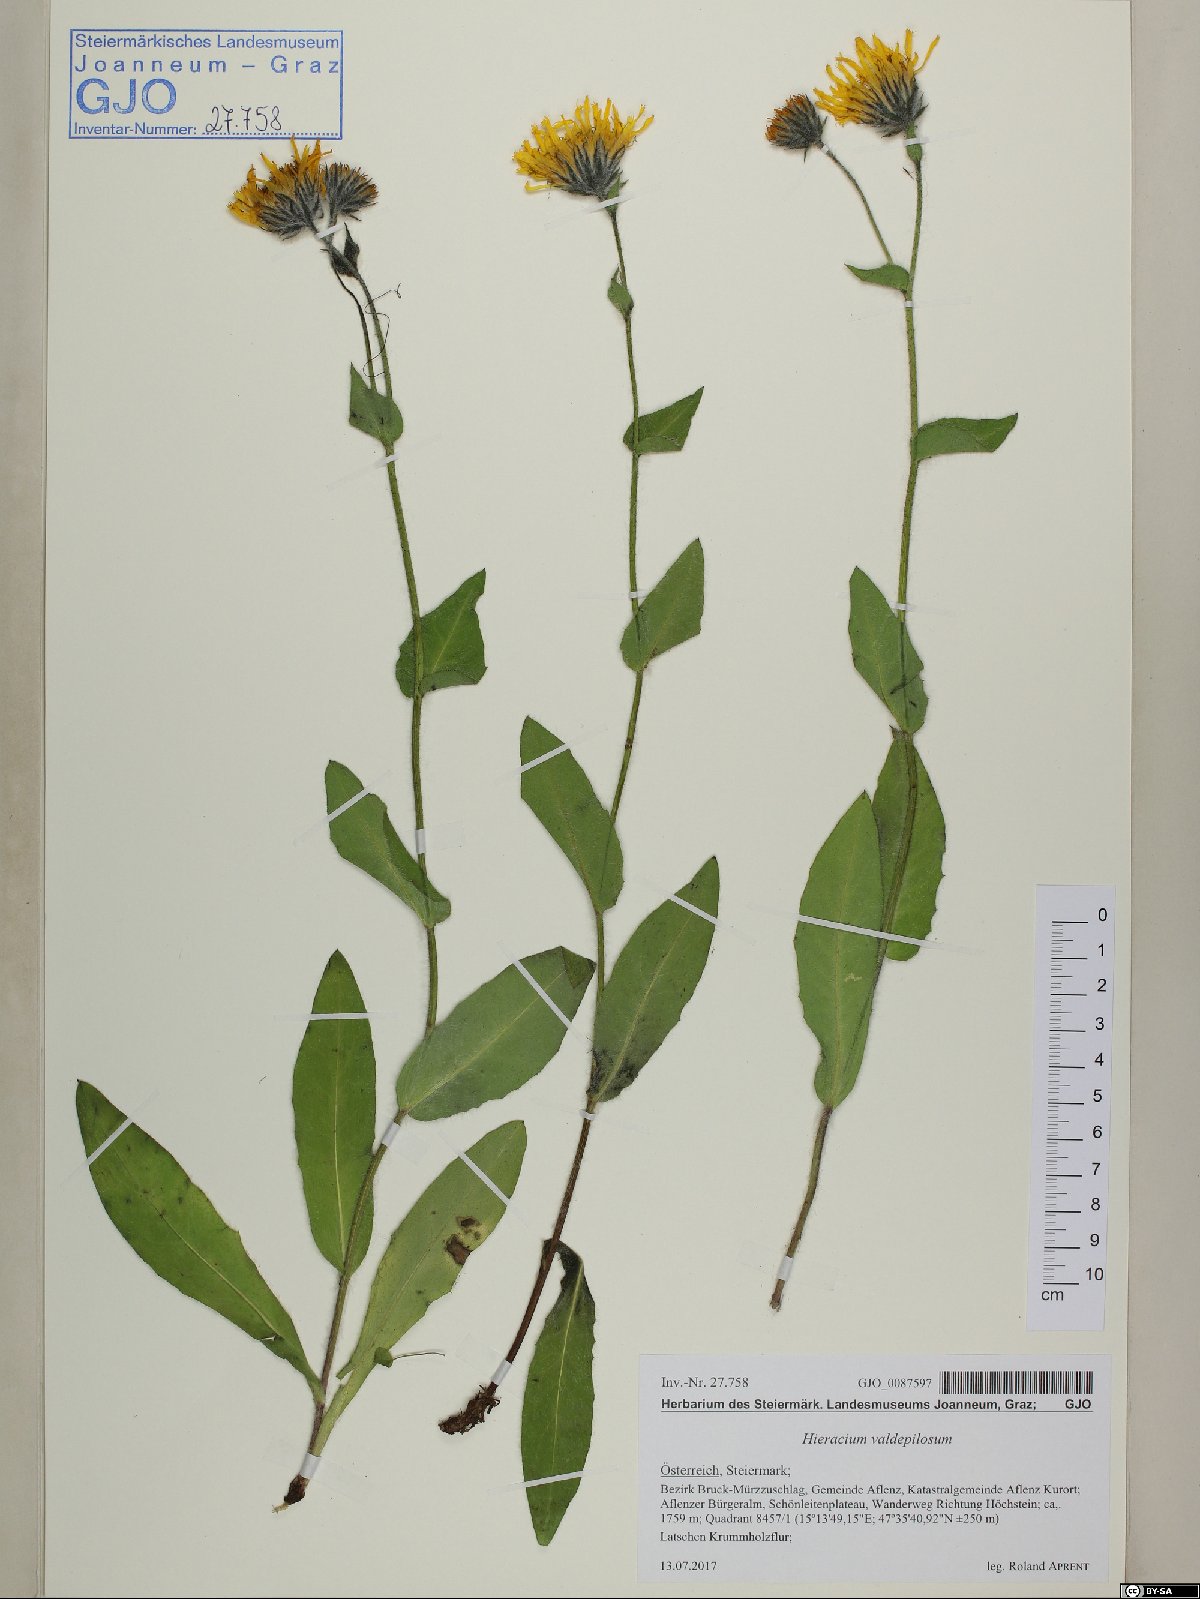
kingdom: Plantae
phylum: Tracheophyta
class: Magnoliopsida
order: Asterales
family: Asteraceae
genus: Hieracium
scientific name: Hieracium valdepilosum
